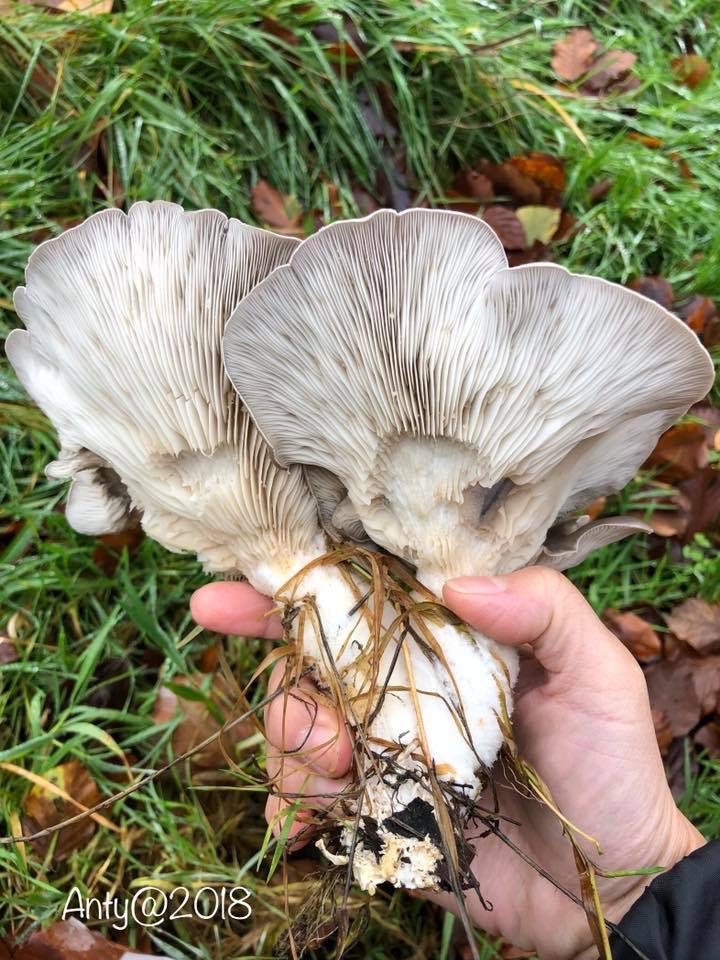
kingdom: Fungi
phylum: Basidiomycota
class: Agaricomycetes
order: Agaricales
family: Pleurotaceae
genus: Pleurotus
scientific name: Pleurotus ostreatus
